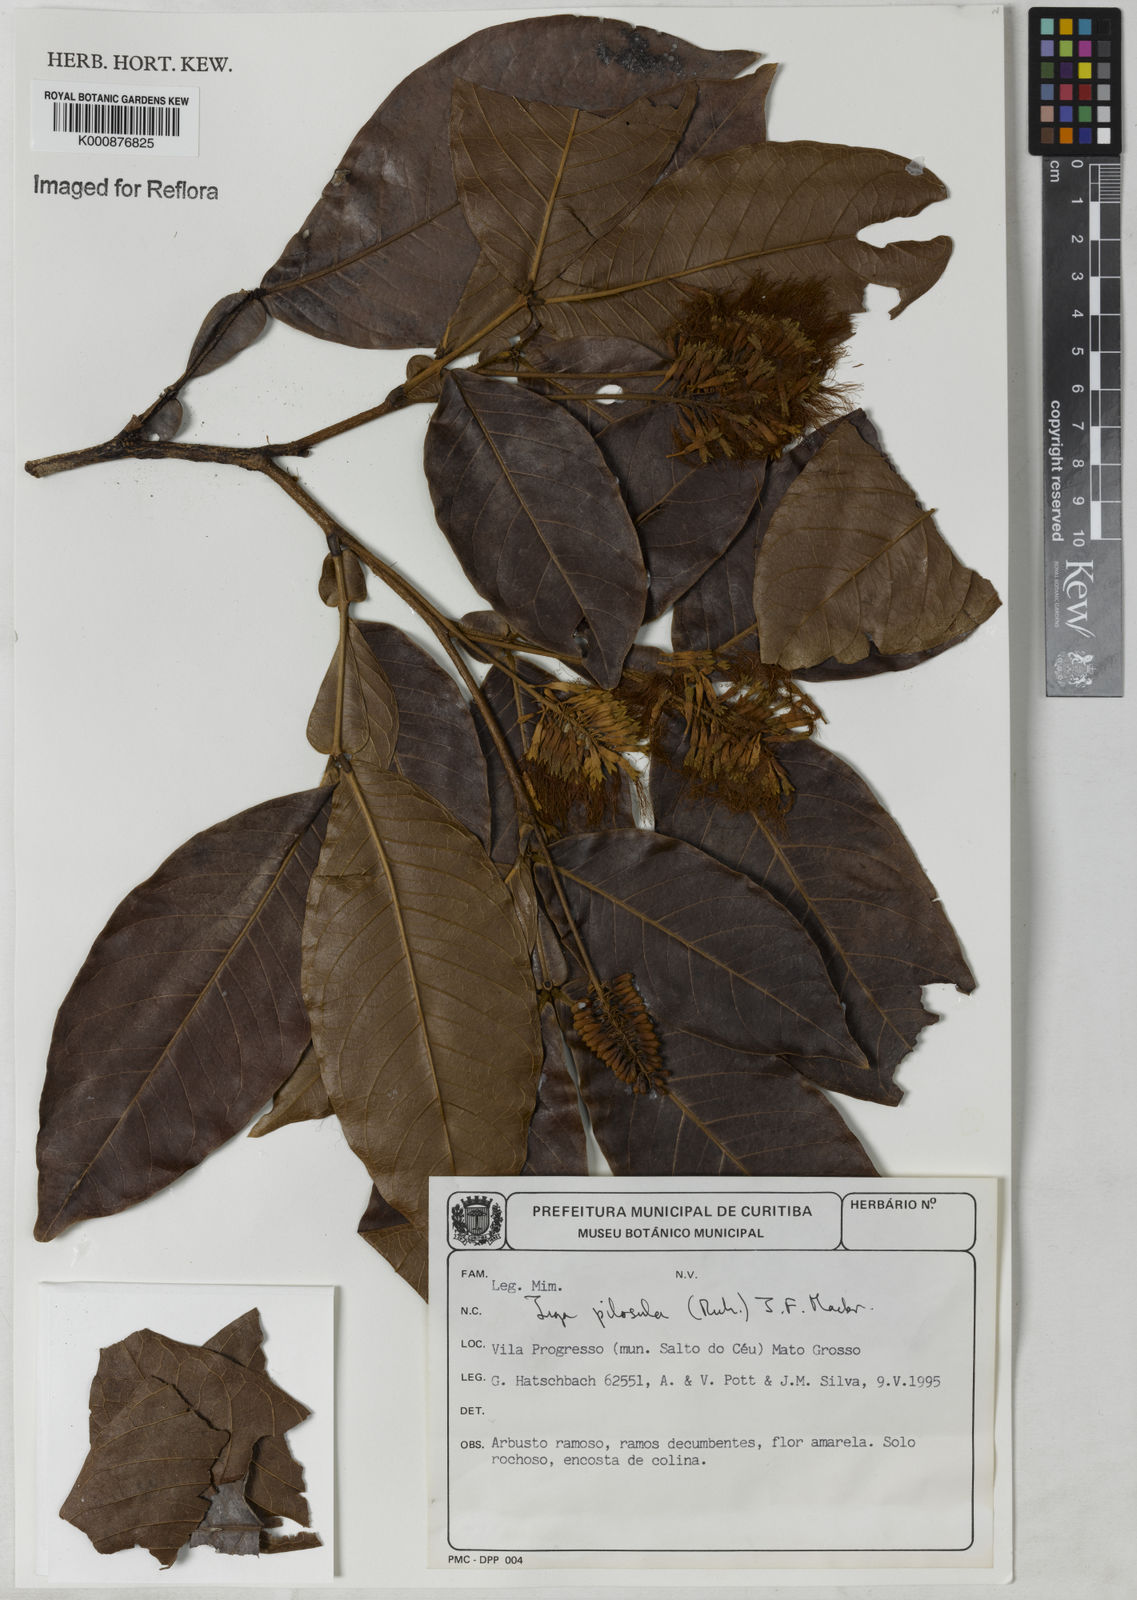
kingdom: Plantae
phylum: Tracheophyta
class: Magnoliopsida
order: Fabales
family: Fabaceae
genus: Inga
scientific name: Inga pilosula
